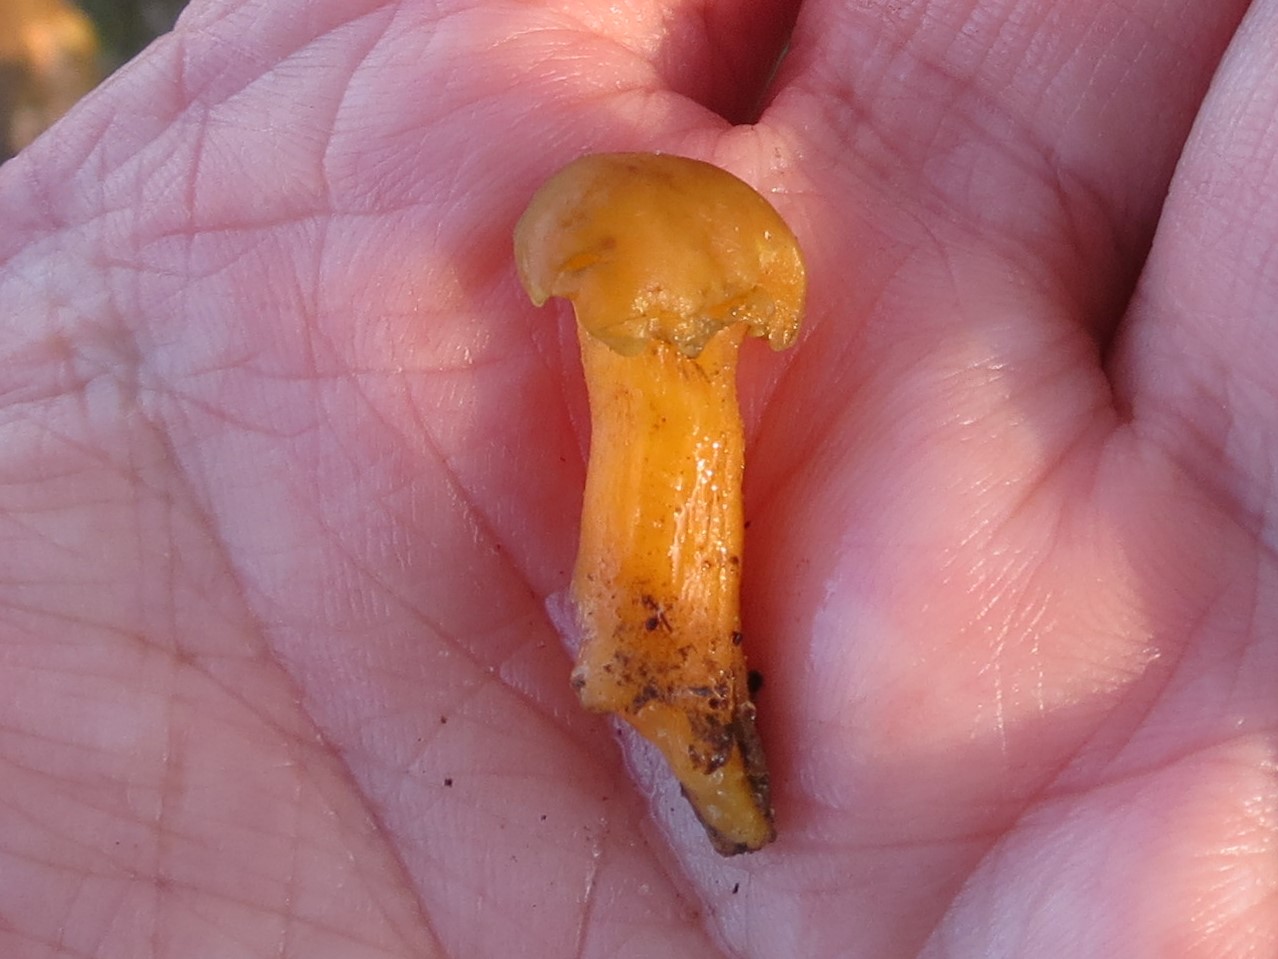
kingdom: Fungi
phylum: Ascomycota
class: Leotiomycetes
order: Leotiales
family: Leotiaceae
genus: Leotia
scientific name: Leotia lubrica
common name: ravsvamp
